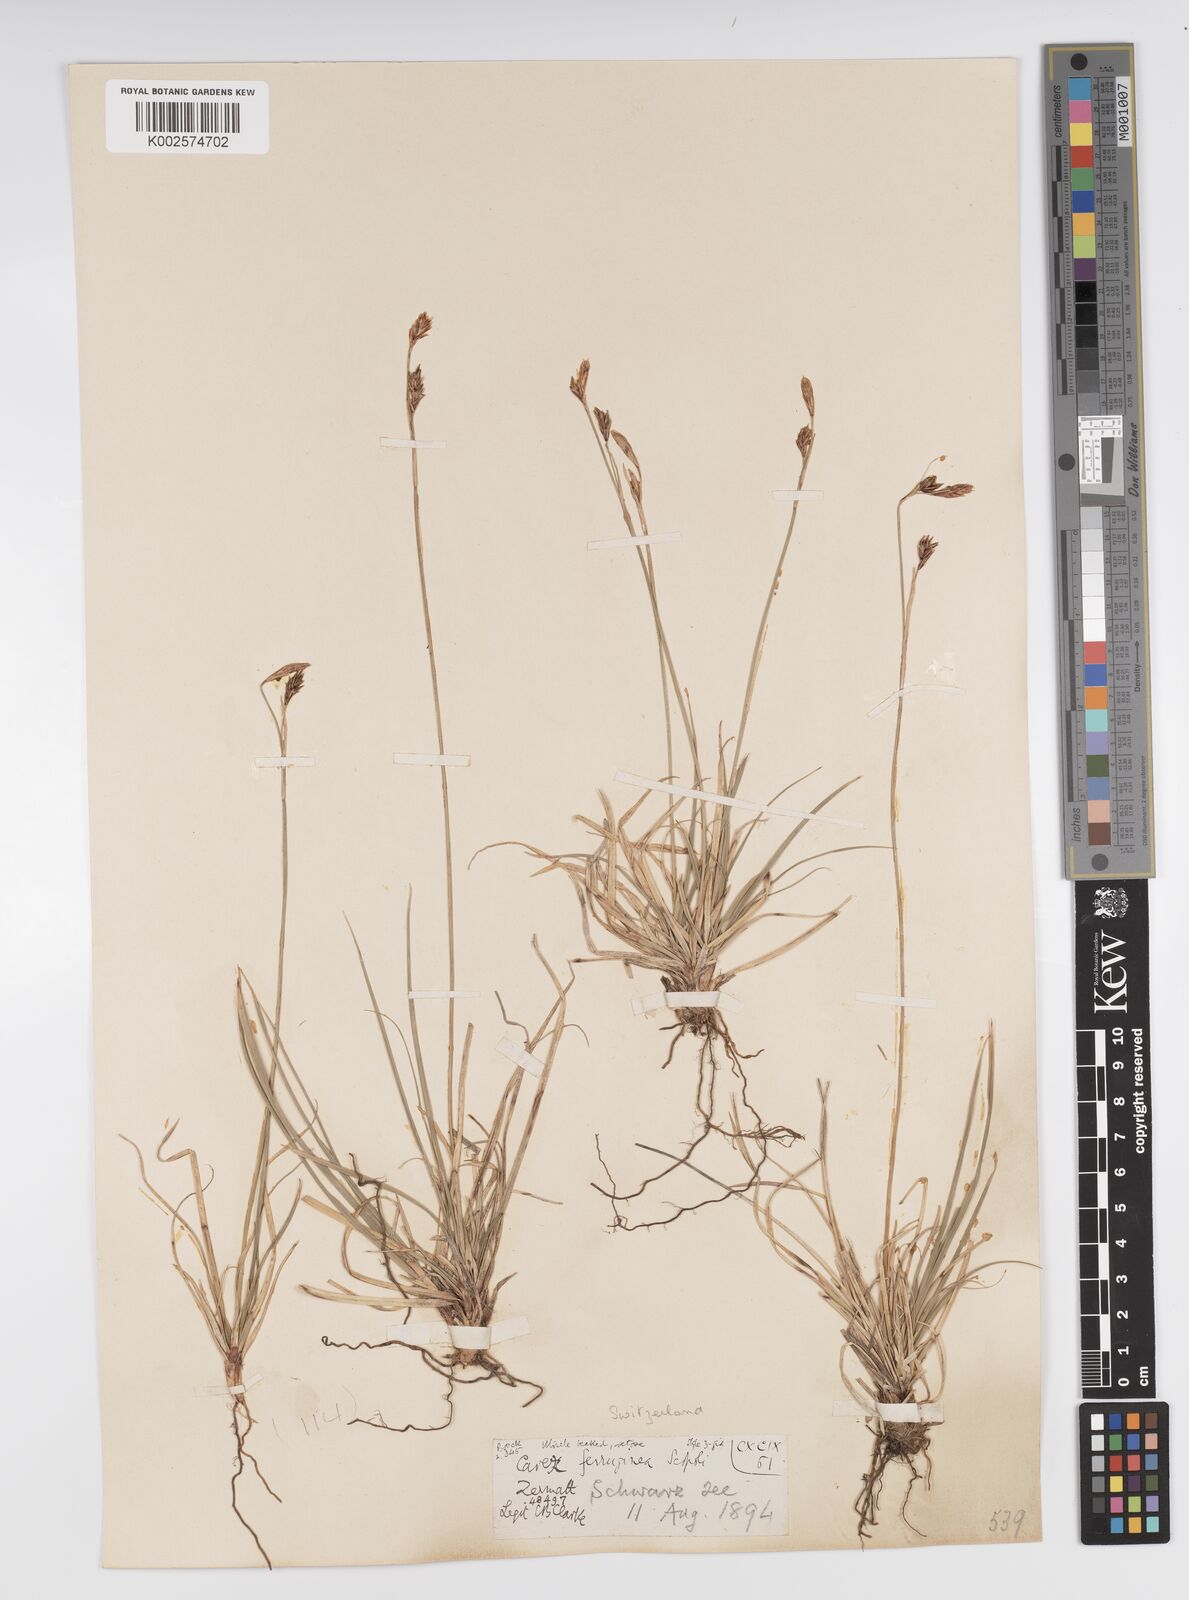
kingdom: Plantae
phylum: Tracheophyta
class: Liliopsida
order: Poales
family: Cyperaceae
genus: Carex
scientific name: Carex ferruginea
